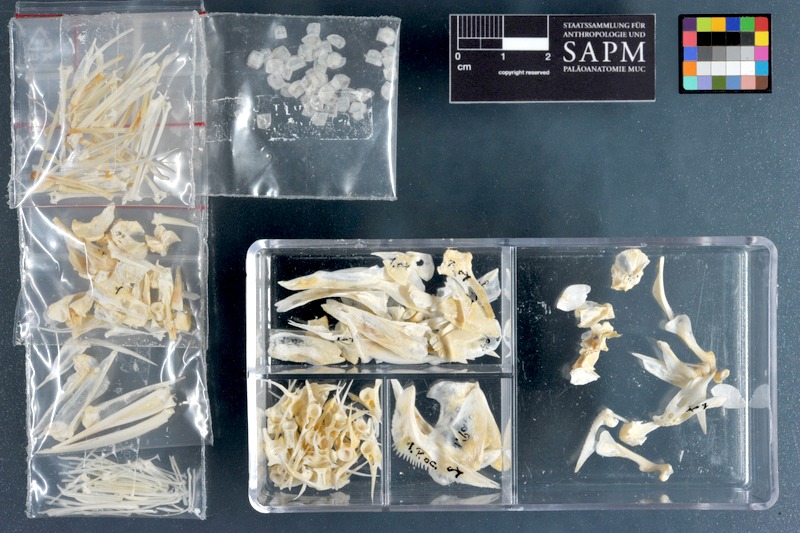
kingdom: Animalia
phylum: Chordata
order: Perciformes
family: Haemulidae
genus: Parapristipoma
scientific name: Parapristipoma octolineatum
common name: African striped grunt
